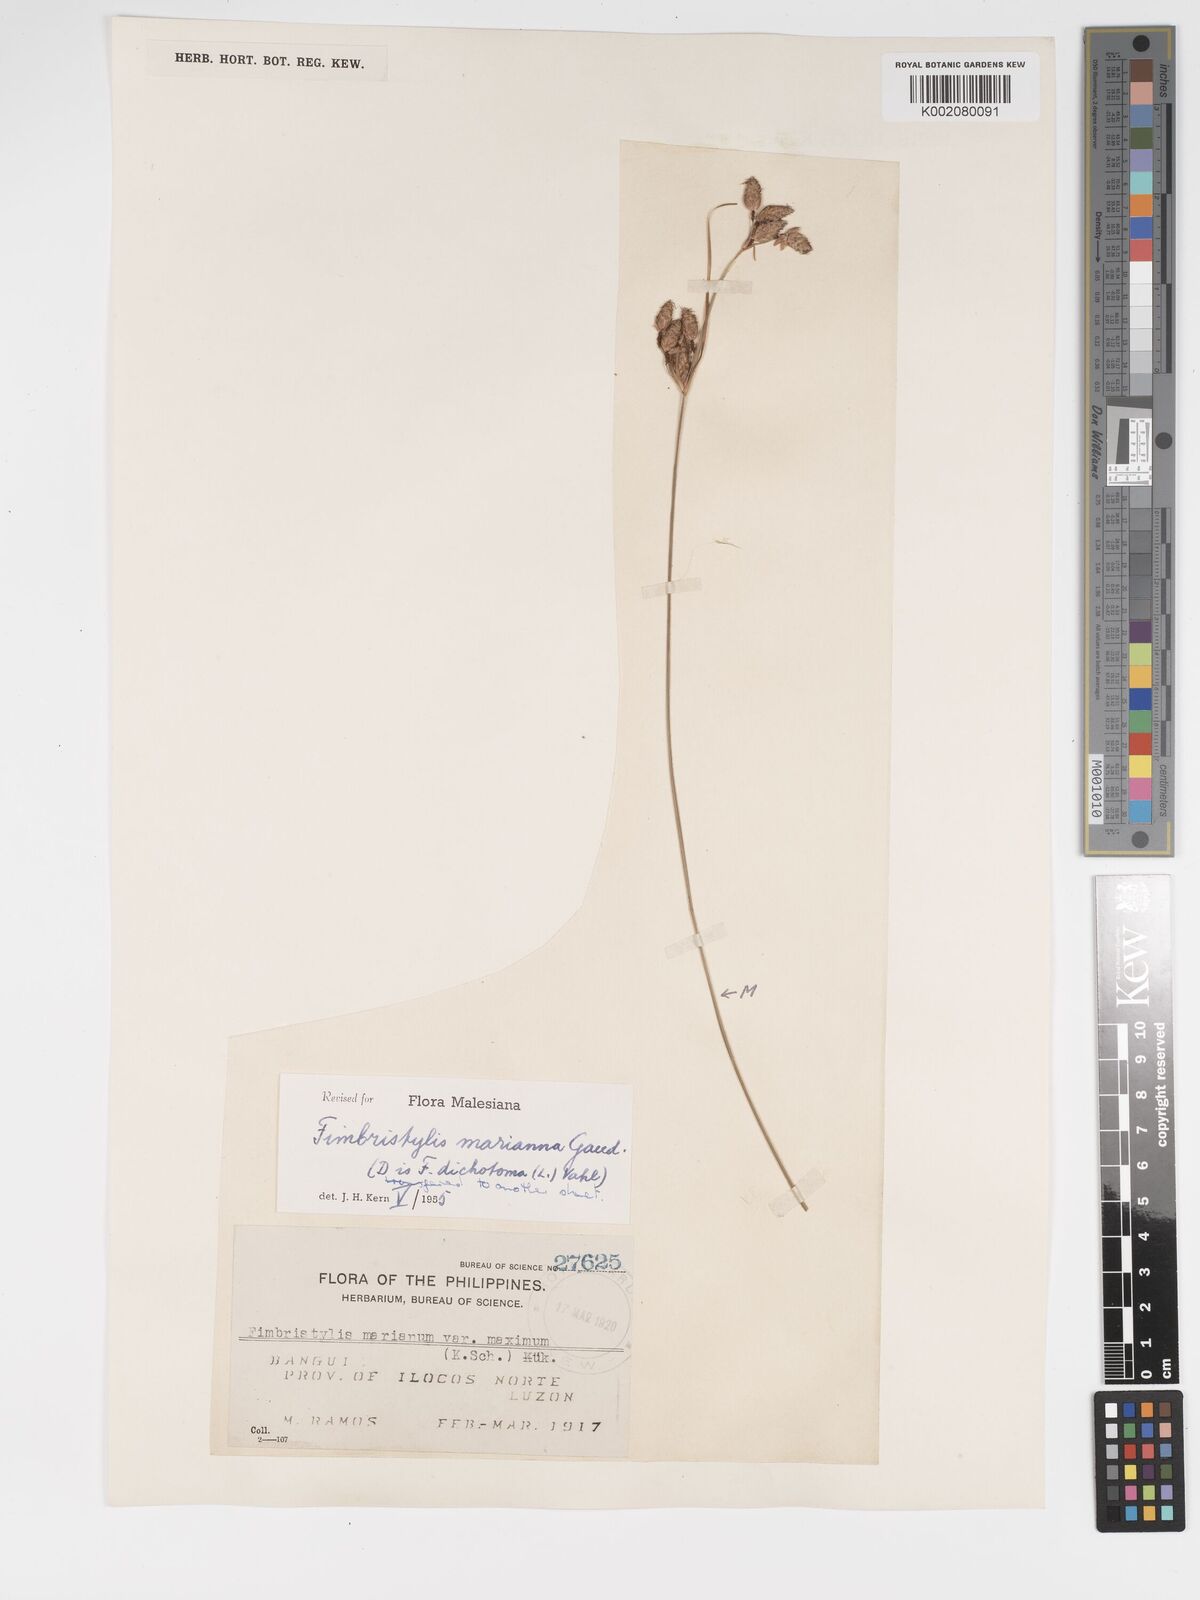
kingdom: Plantae
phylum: Tracheophyta
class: Liliopsida
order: Poales
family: Cyperaceae
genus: Fimbristylis
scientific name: Fimbristylis tristachya
